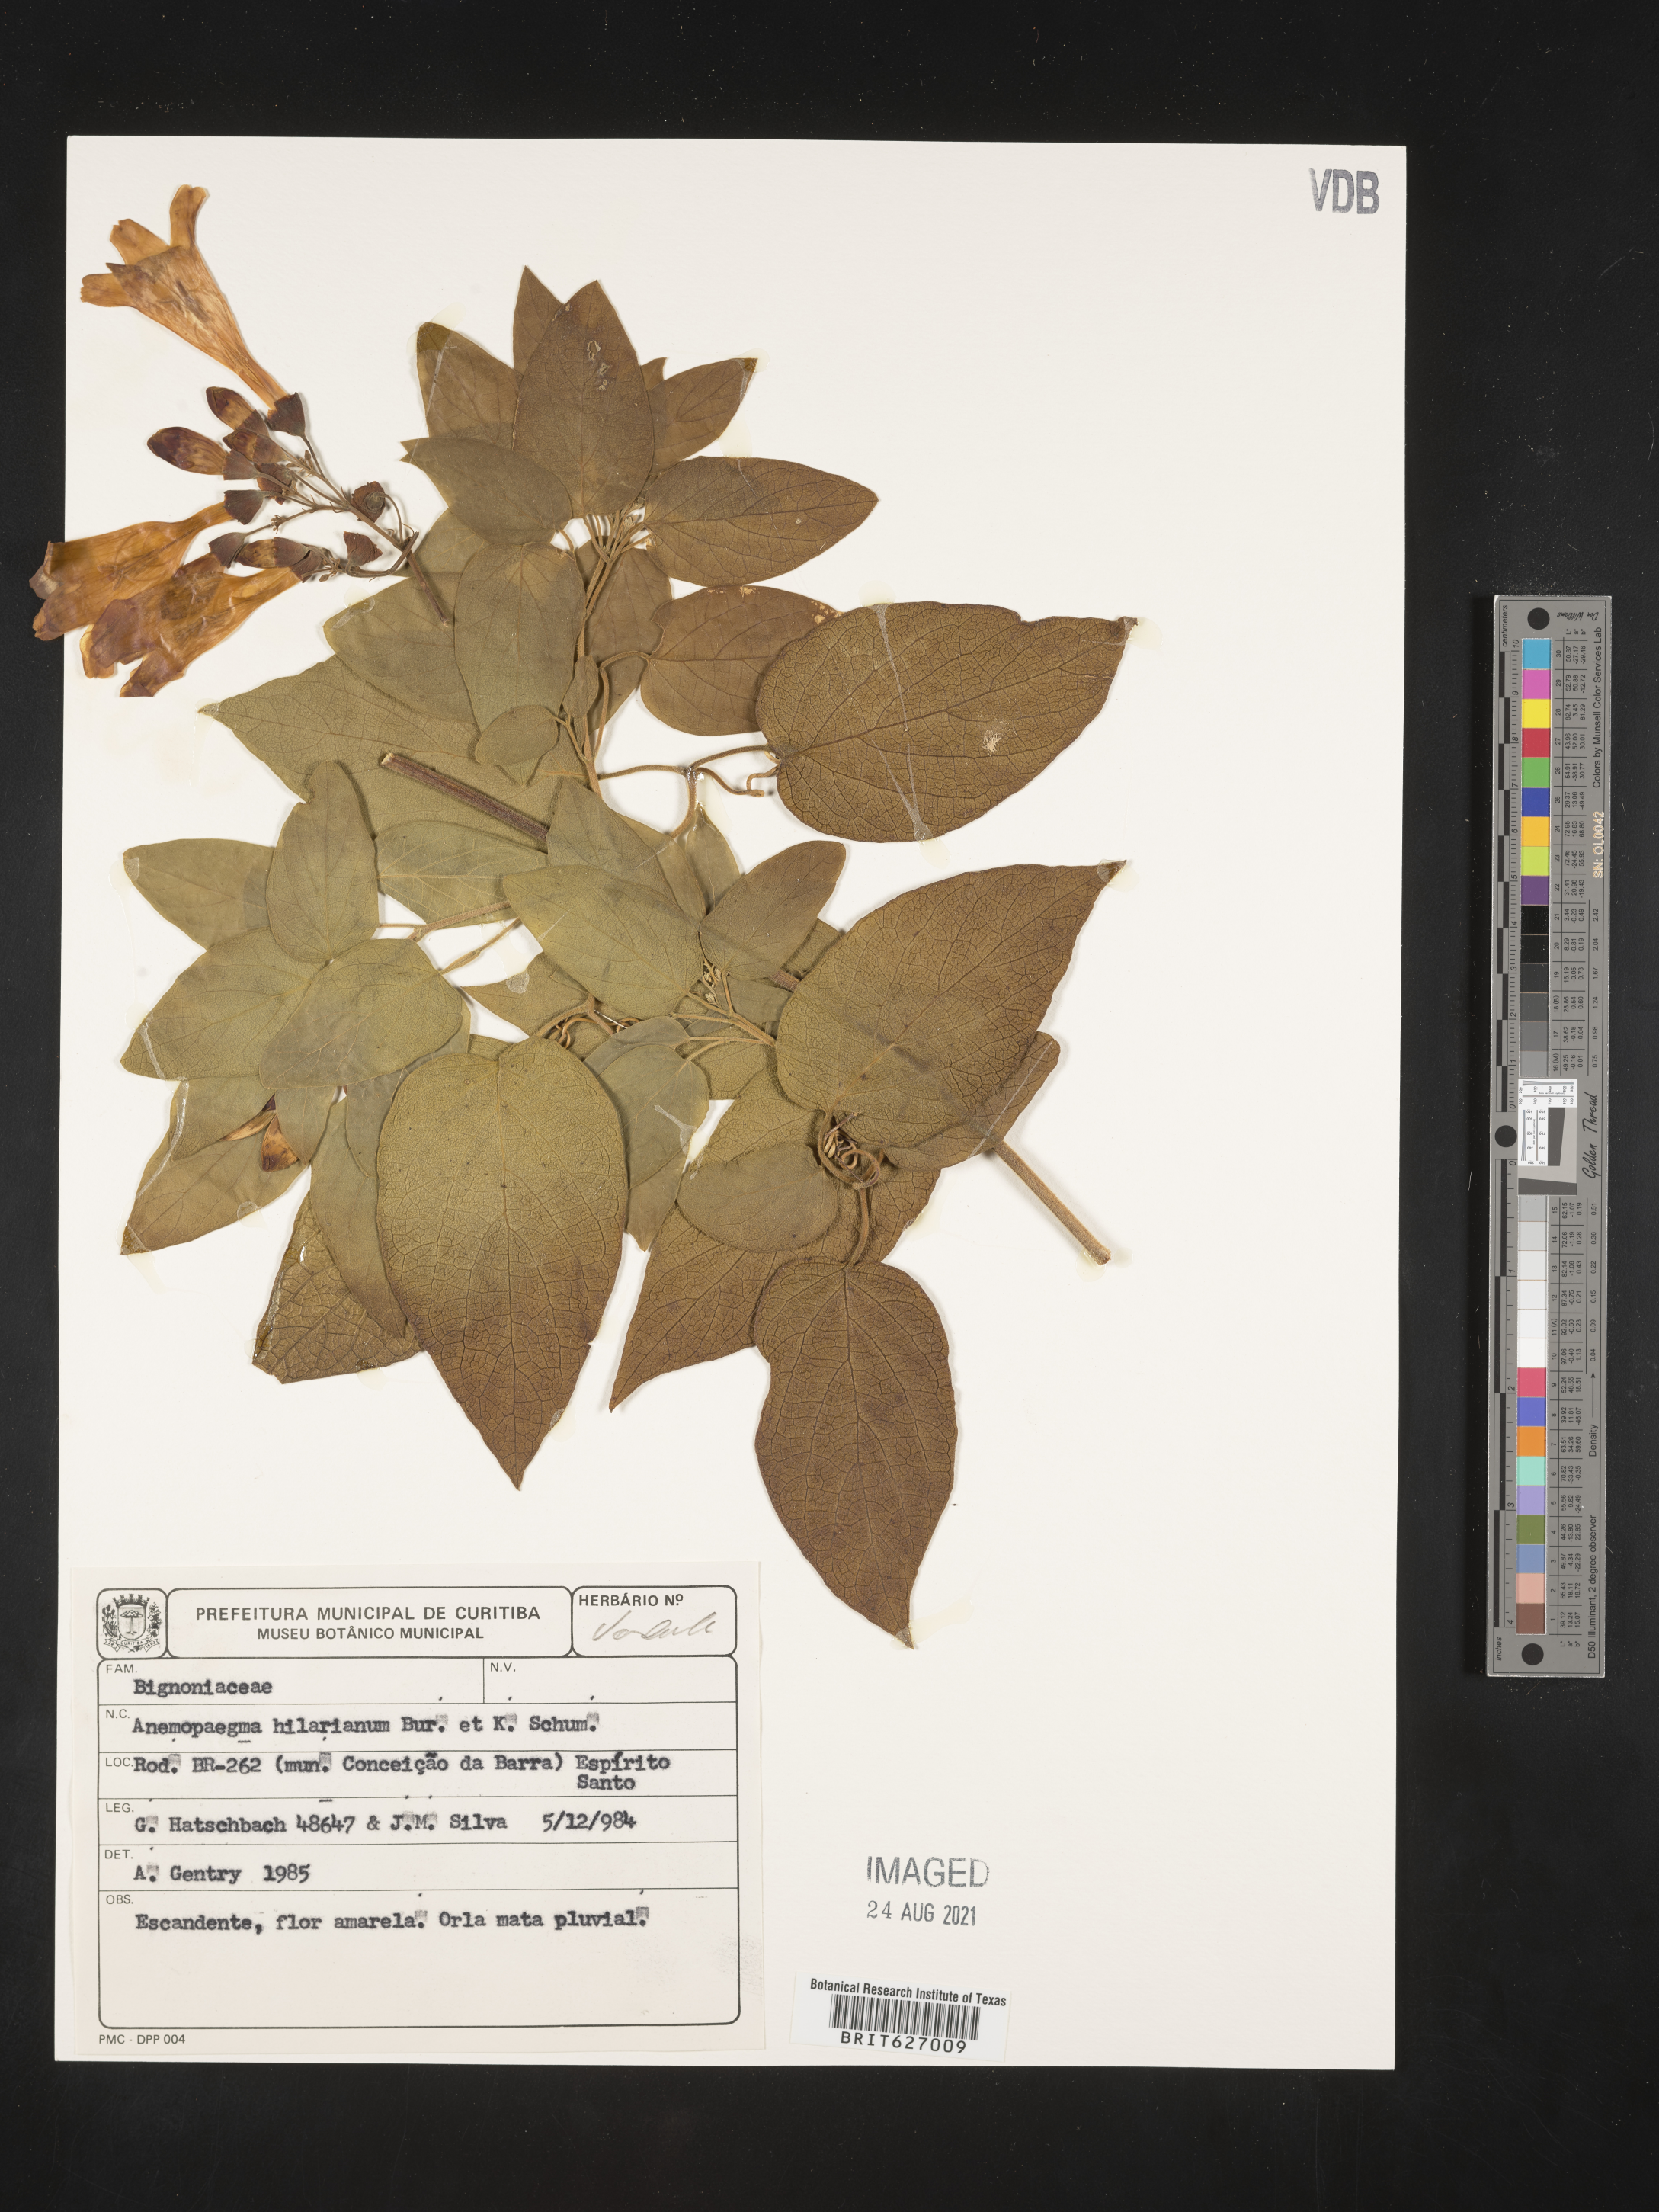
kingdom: Plantae
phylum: Tracheophyta
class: Magnoliopsida
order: Lamiales
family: Bignoniaceae
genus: Anemopaegma
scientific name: Anemopaegma hilarianum
